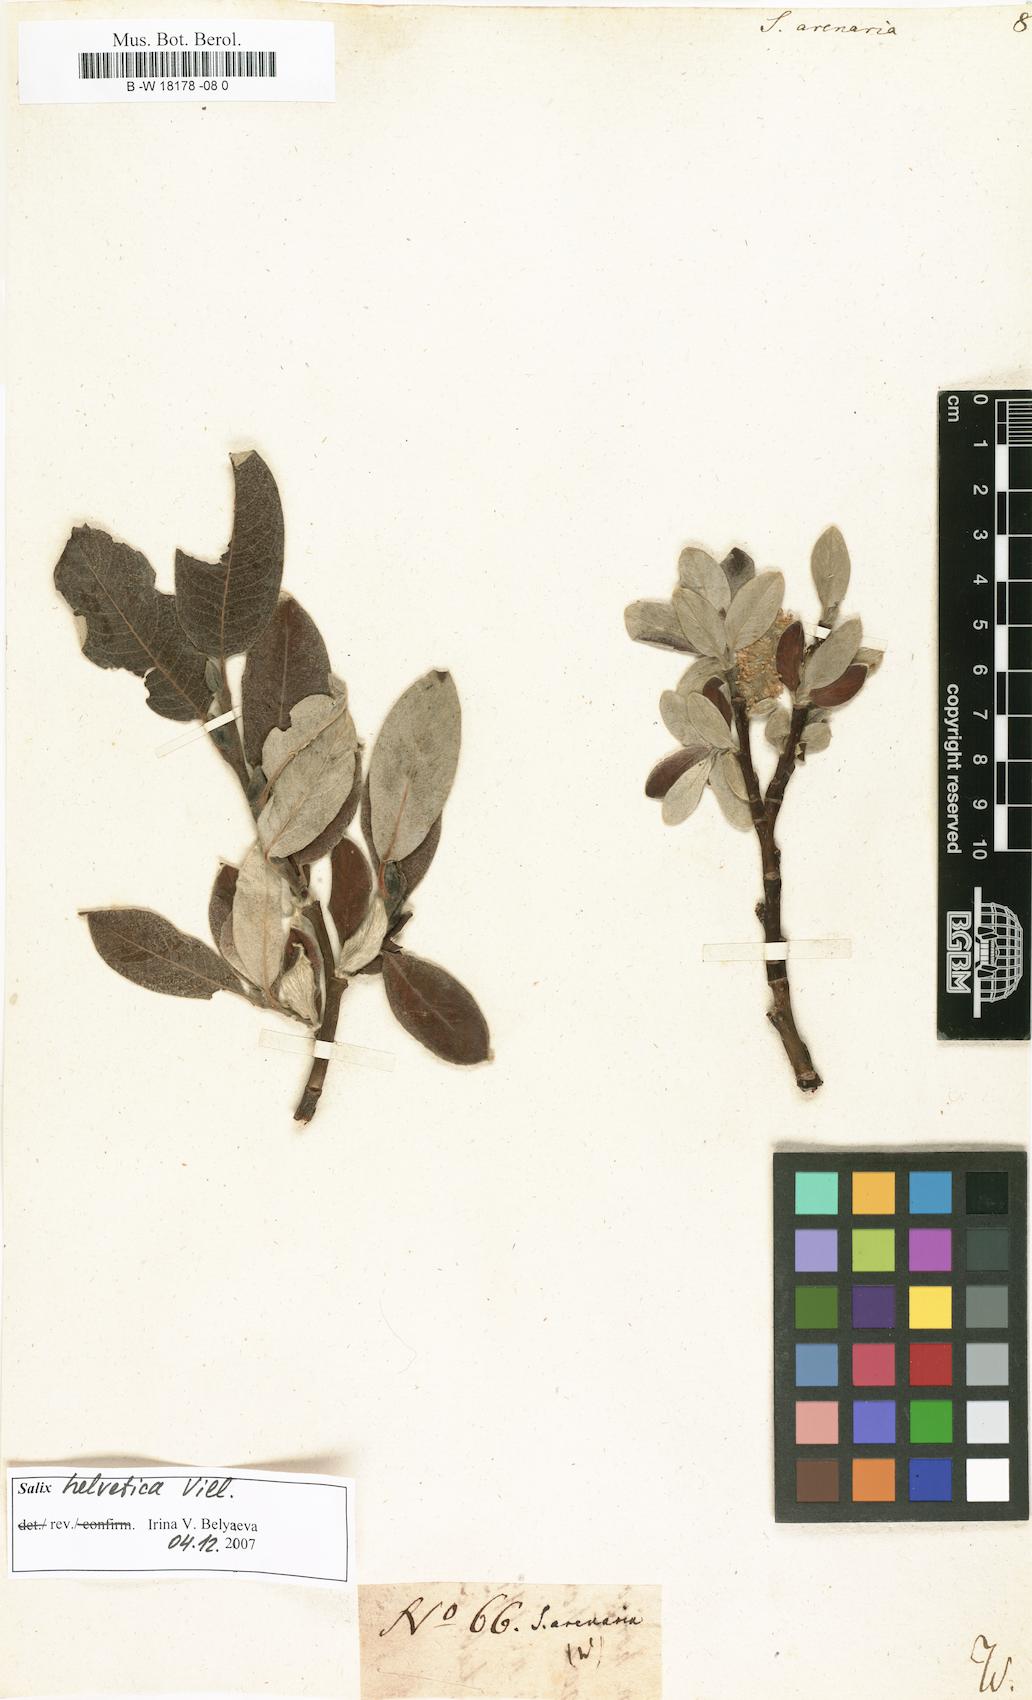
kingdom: Plantae
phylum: Tracheophyta
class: Magnoliopsida
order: Malpighiales
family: Salicaceae
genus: Salix
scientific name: Salix repens
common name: Creeping willow
